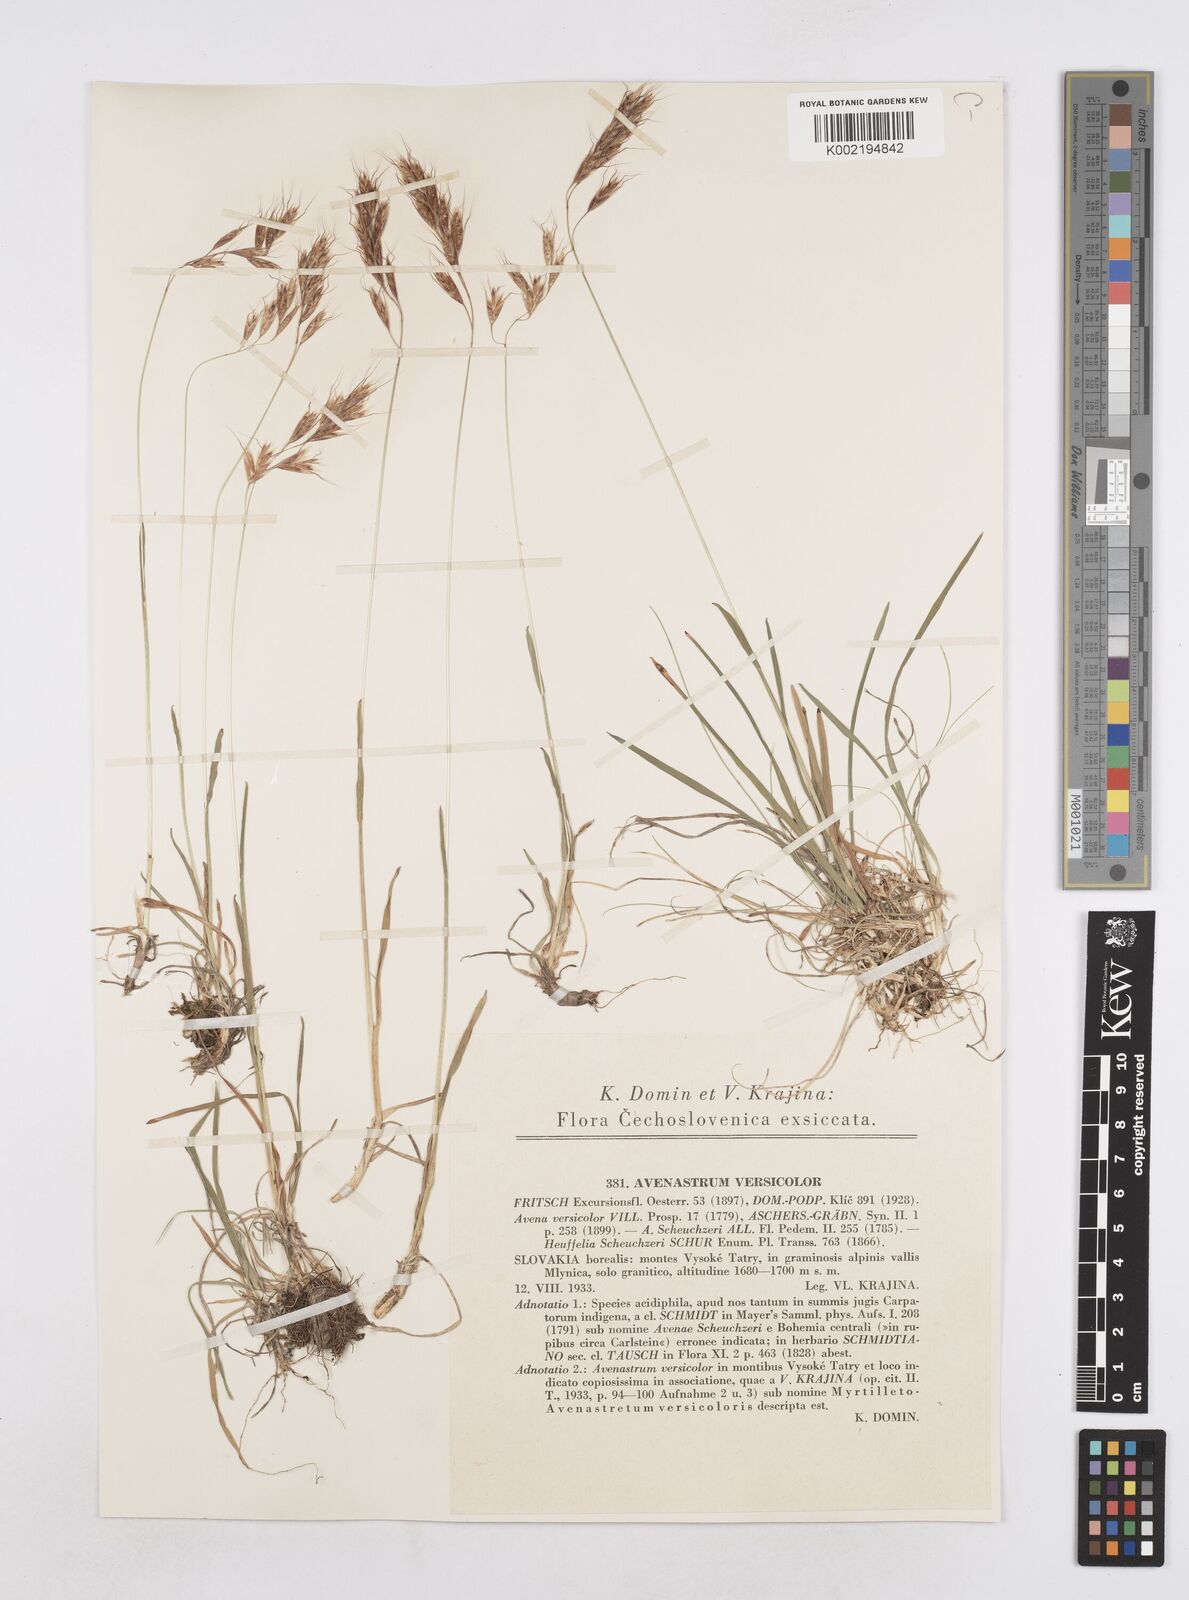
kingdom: Plantae
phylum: Tracheophyta
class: Liliopsida
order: Poales
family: Poaceae
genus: Helictochloa
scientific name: Helictochloa versicolor
